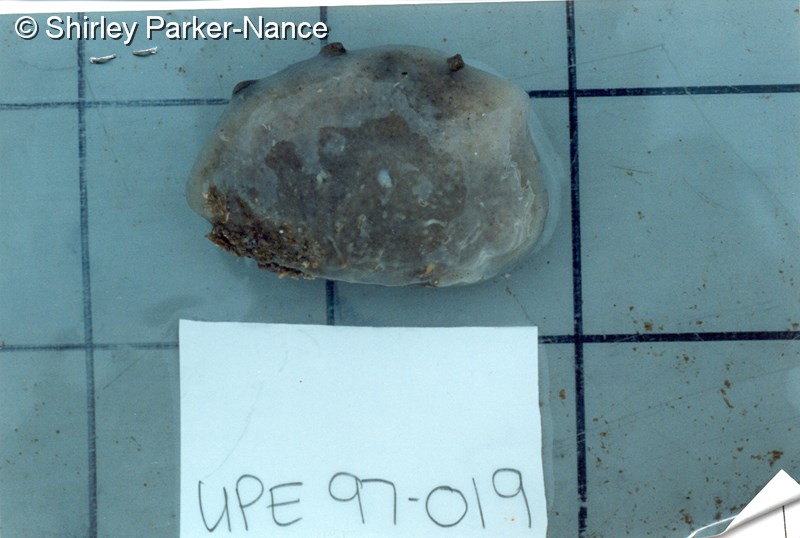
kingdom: Animalia
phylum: Chordata
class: Ascidiacea
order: Aplousobranchia
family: Holozoidae
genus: Sigillina
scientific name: Sigillina
